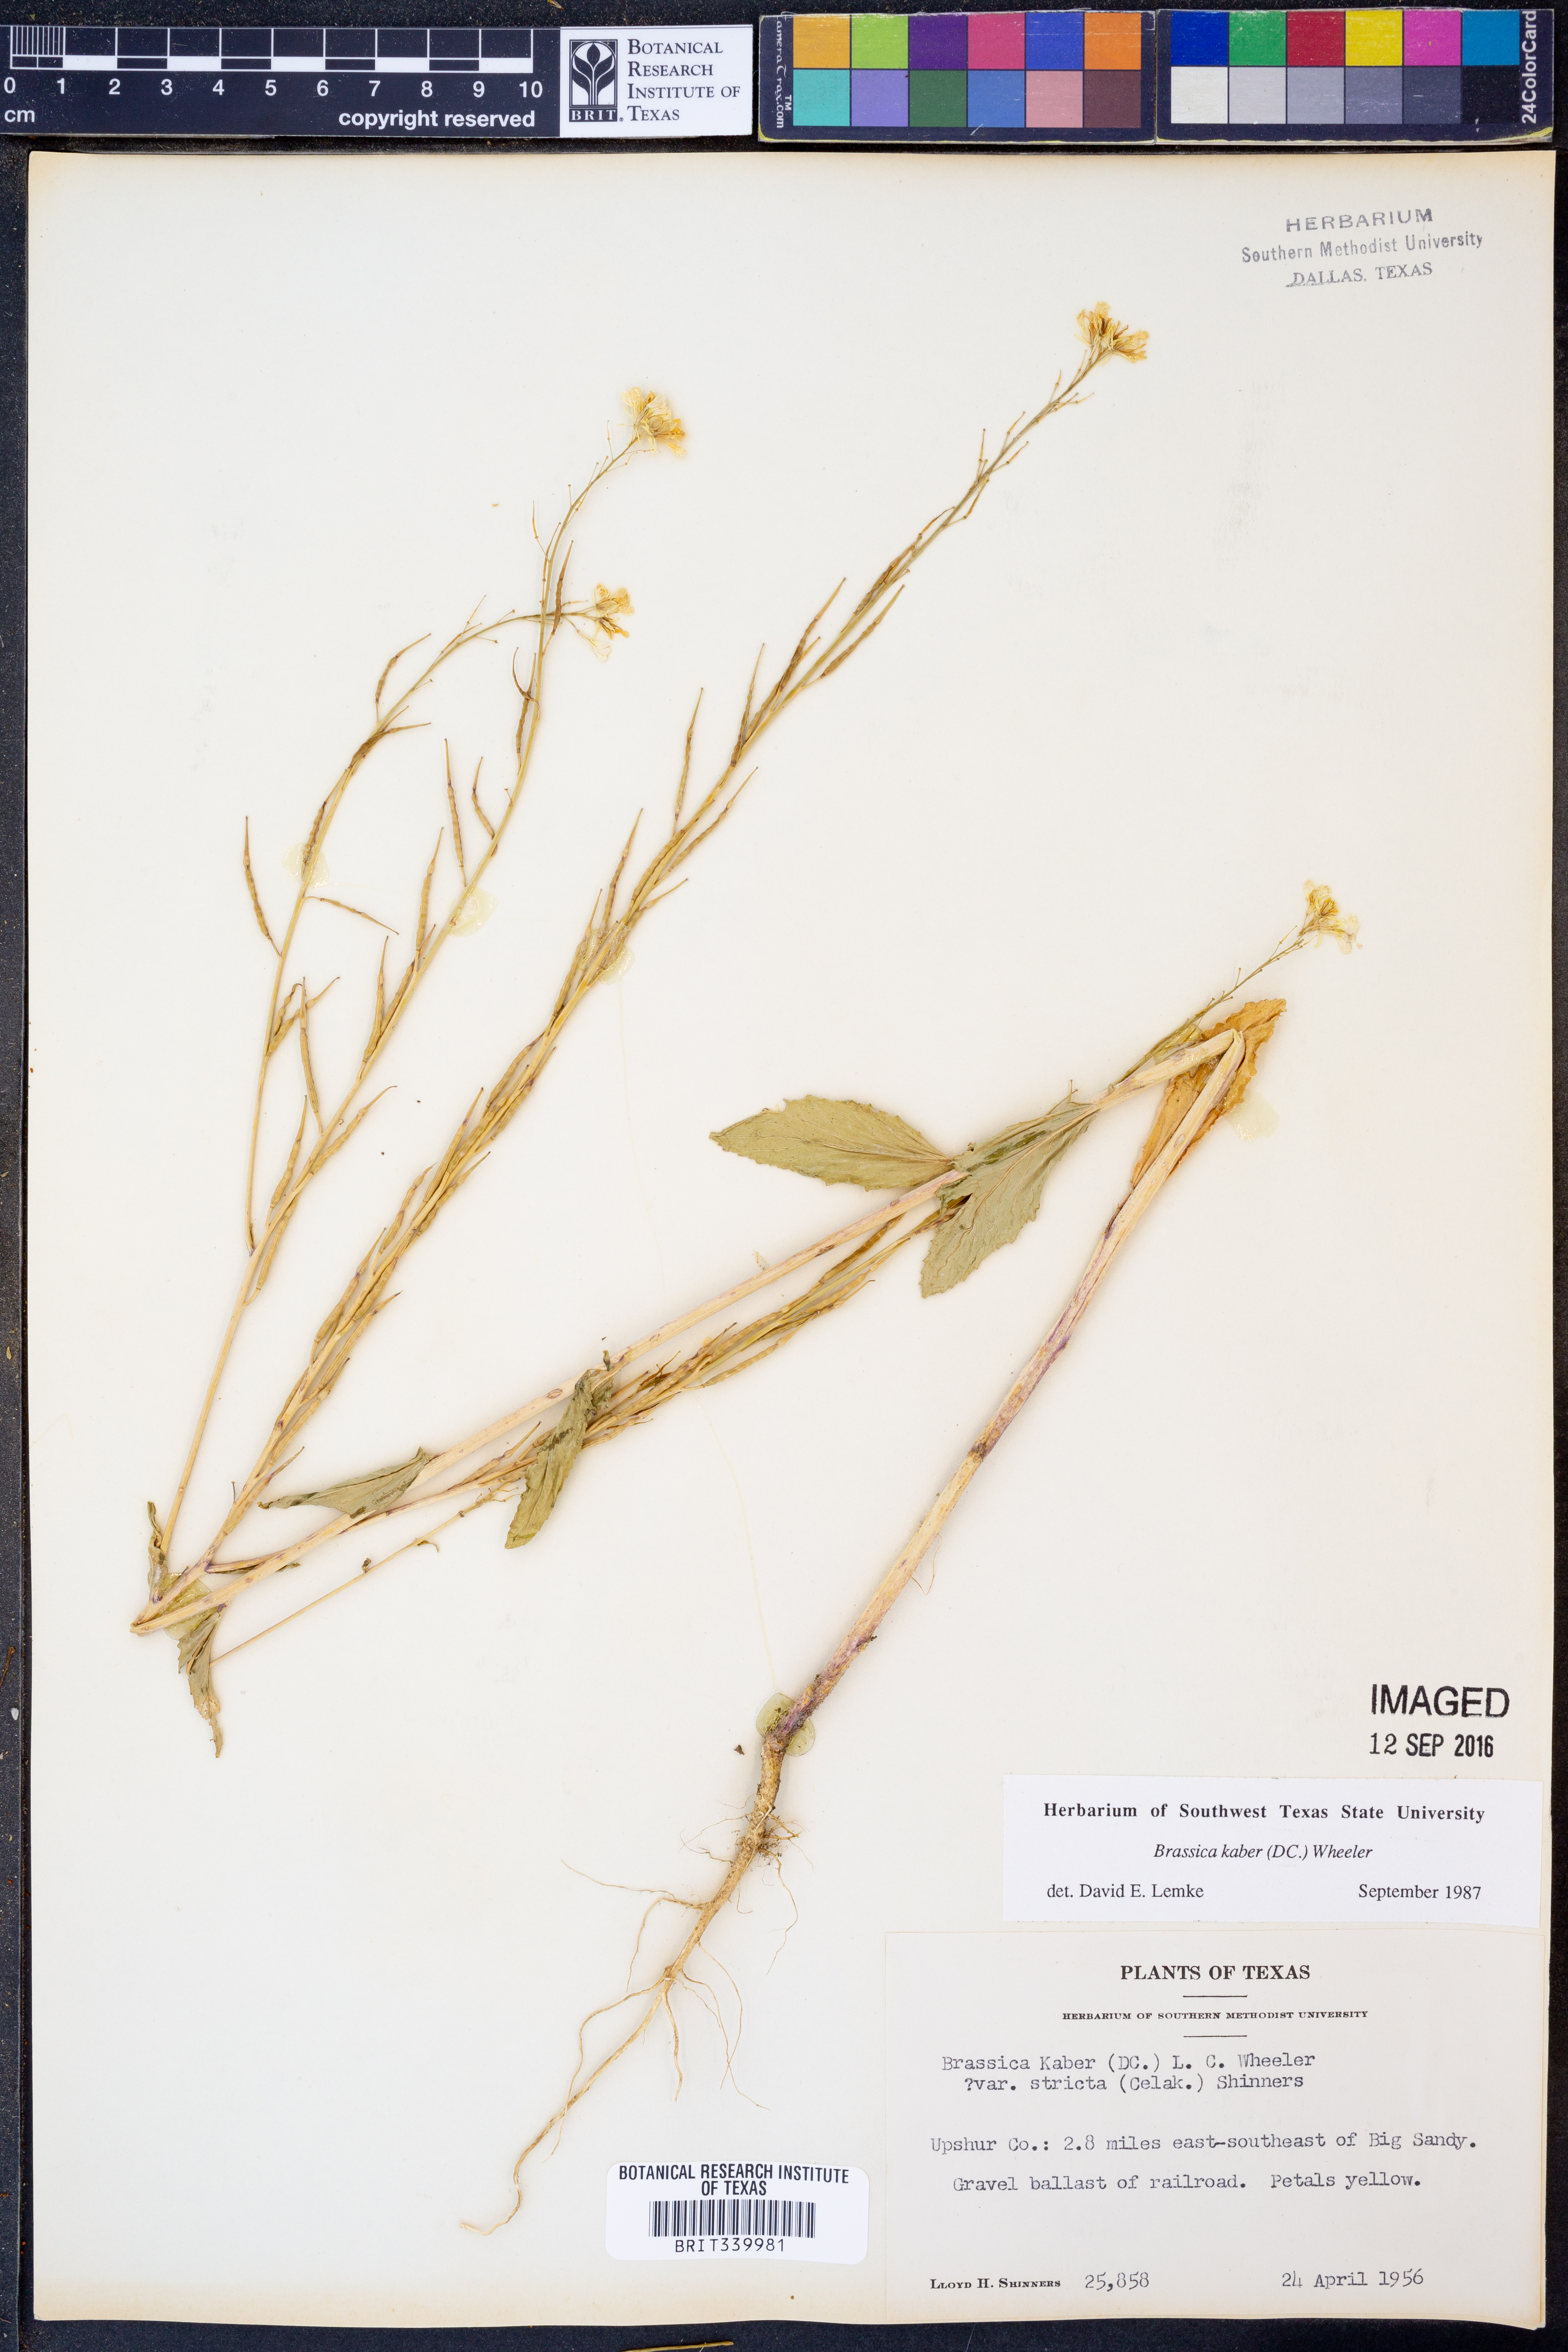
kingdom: Plantae
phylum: Tracheophyta
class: Magnoliopsida
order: Brassicales
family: Brassicaceae
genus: Sinapis
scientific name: Sinapis arvensis
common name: Charlock
